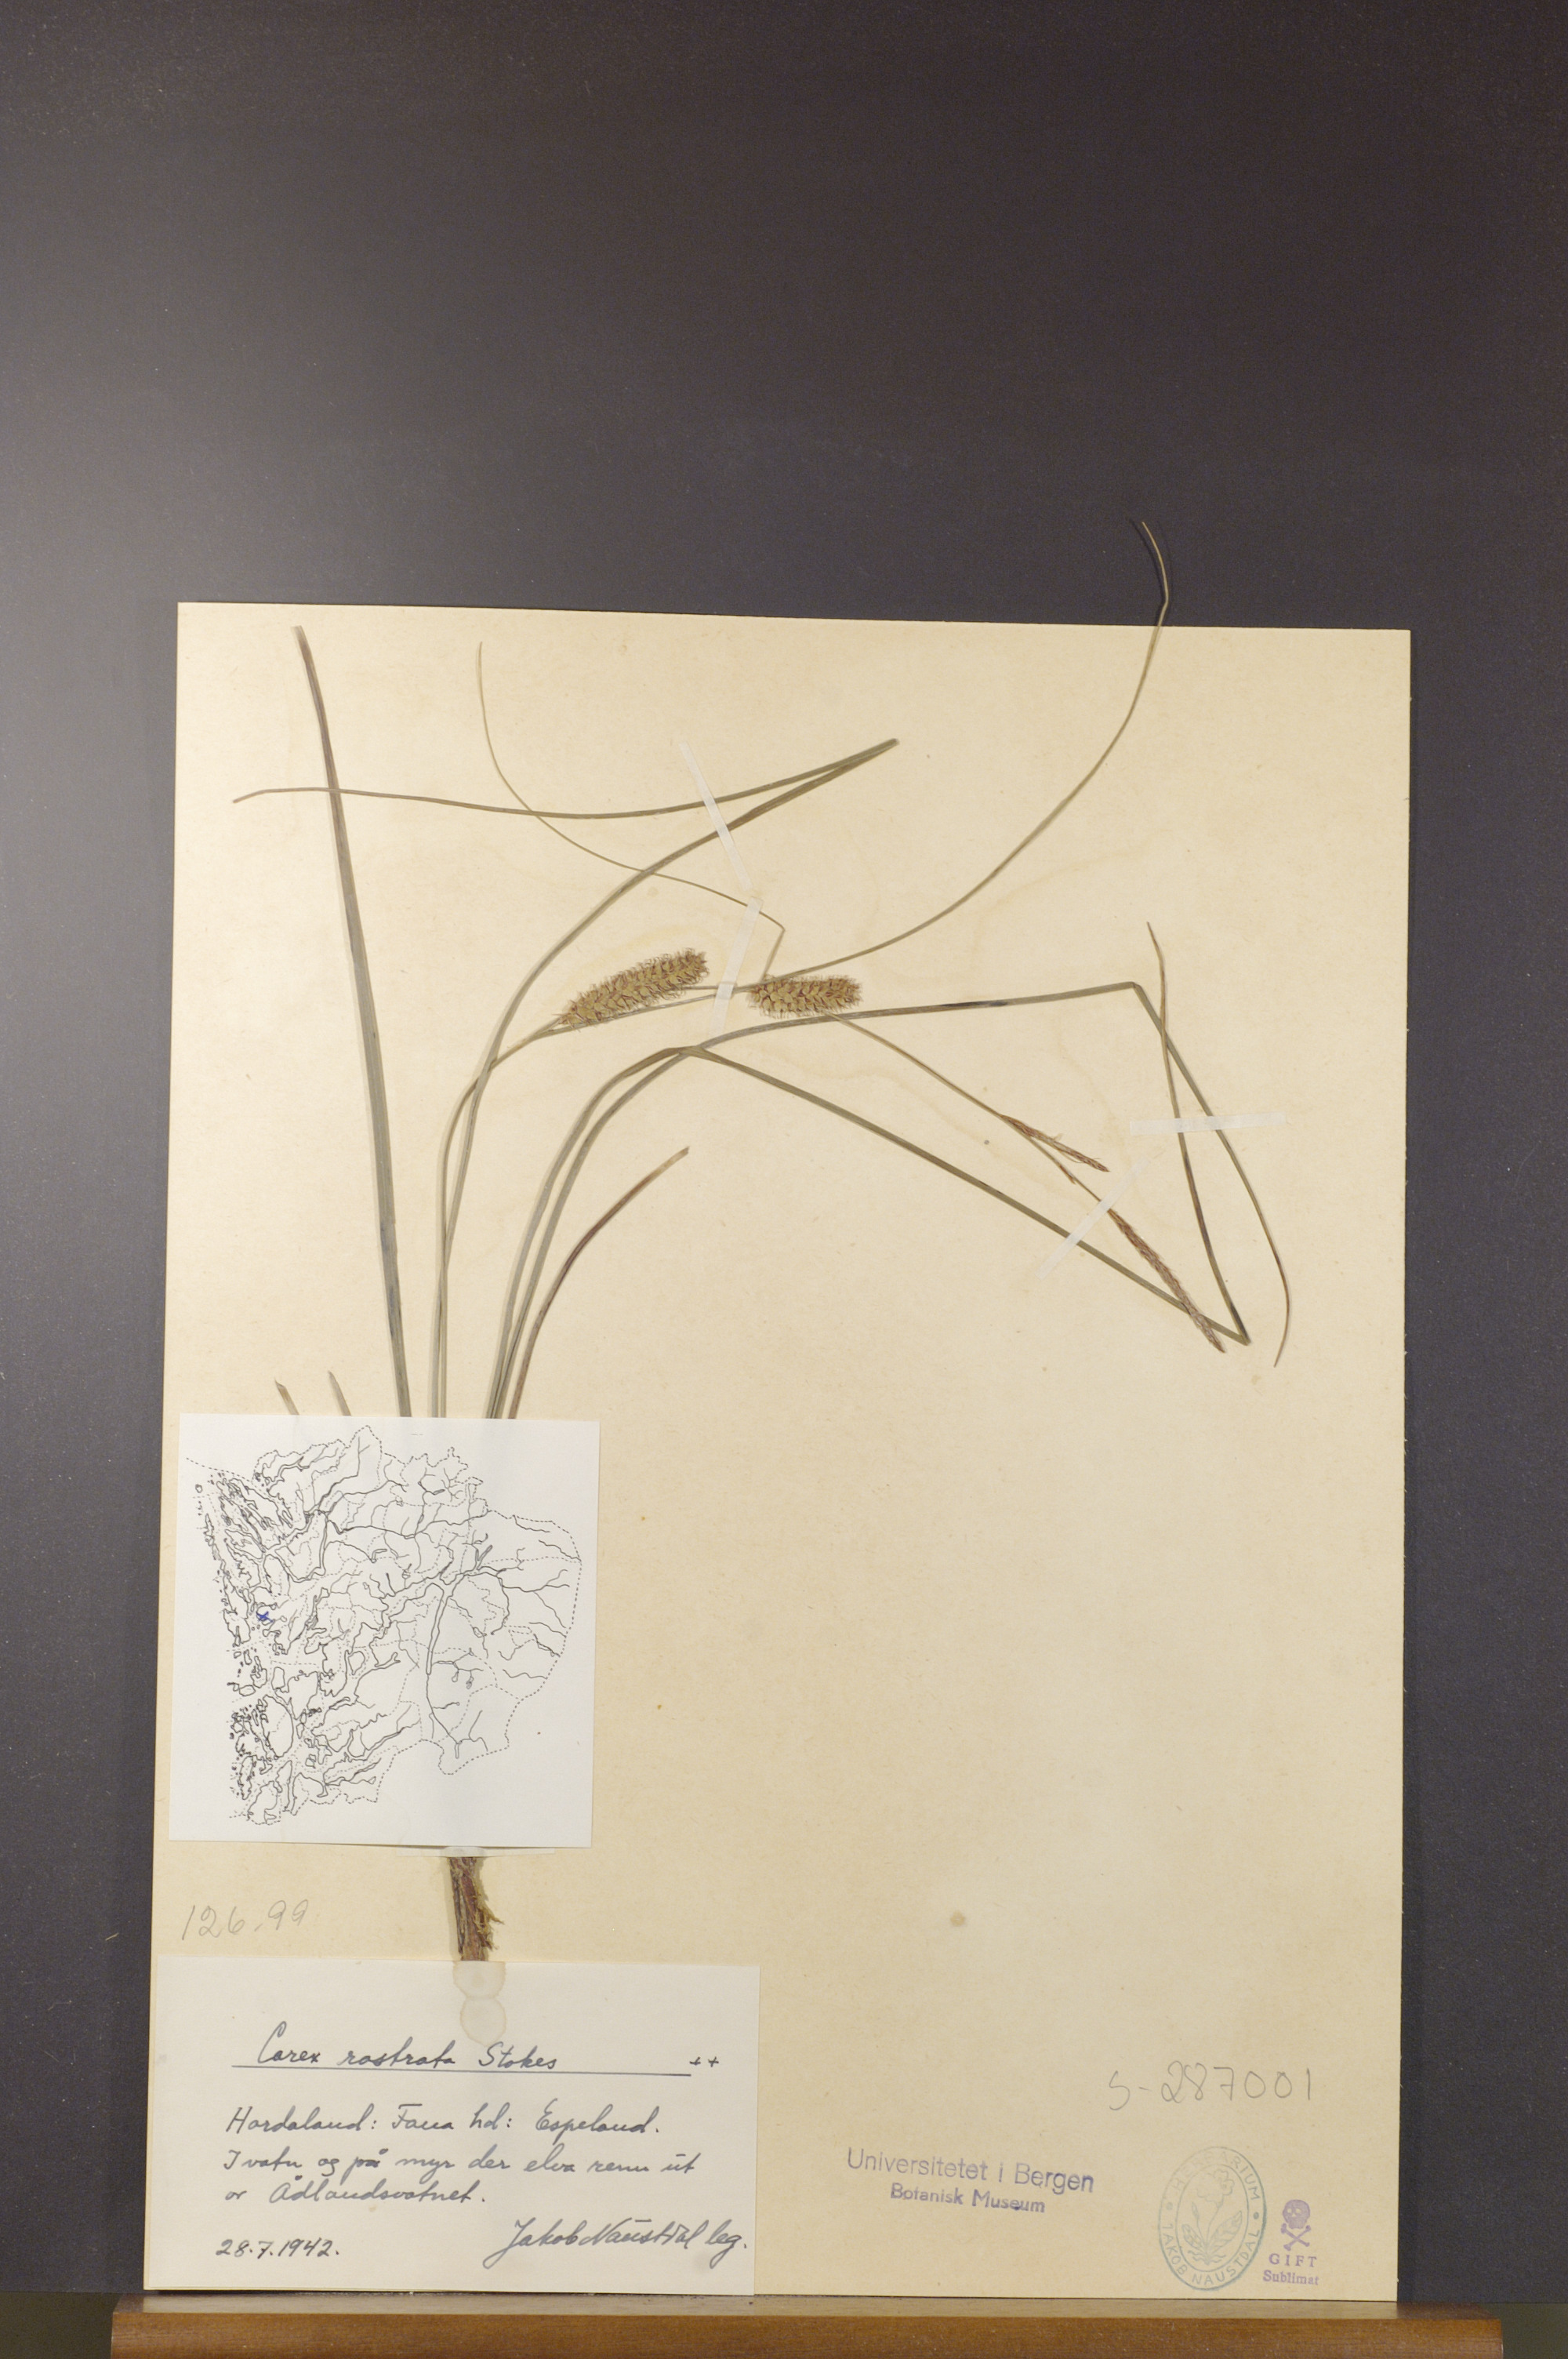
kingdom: Plantae
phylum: Tracheophyta
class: Liliopsida
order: Poales
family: Cyperaceae
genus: Carex
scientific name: Carex rostrata
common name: Bottle sedge
